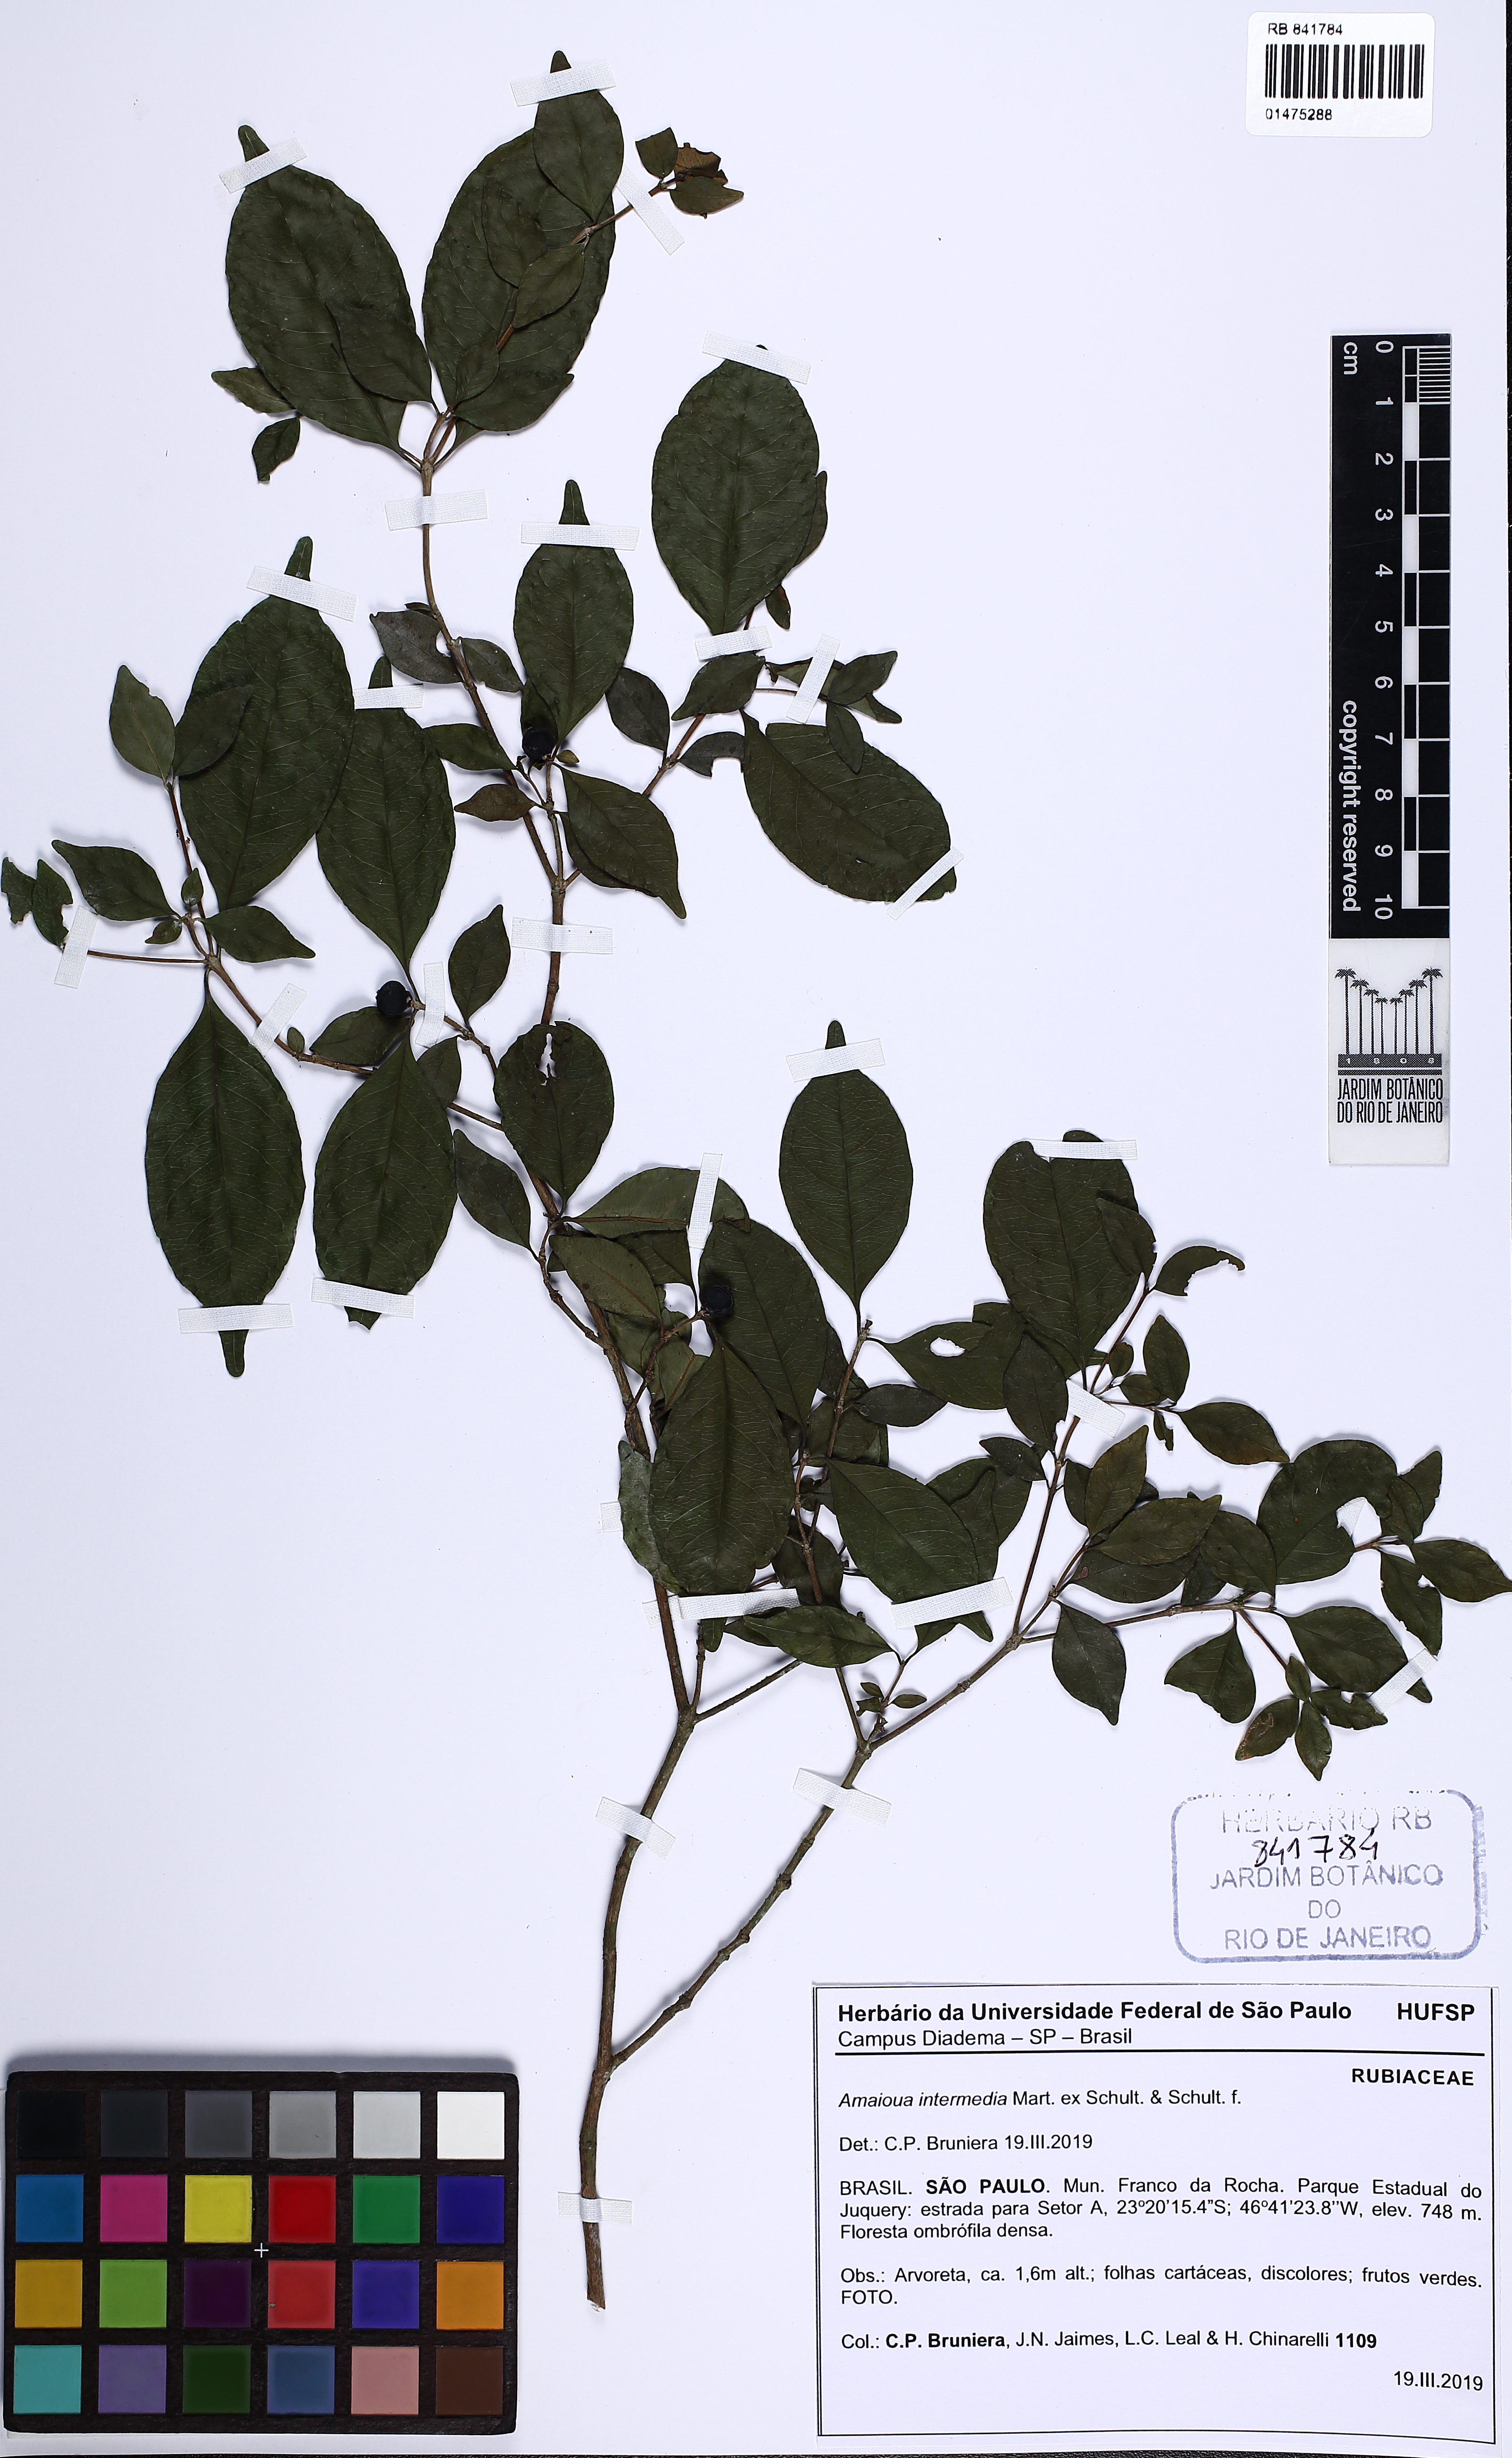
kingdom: Plantae
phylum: Tracheophyta
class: Magnoliopsida
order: Gentianales
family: Rubiaceae
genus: Amaioua
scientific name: Amaioua intermedia
